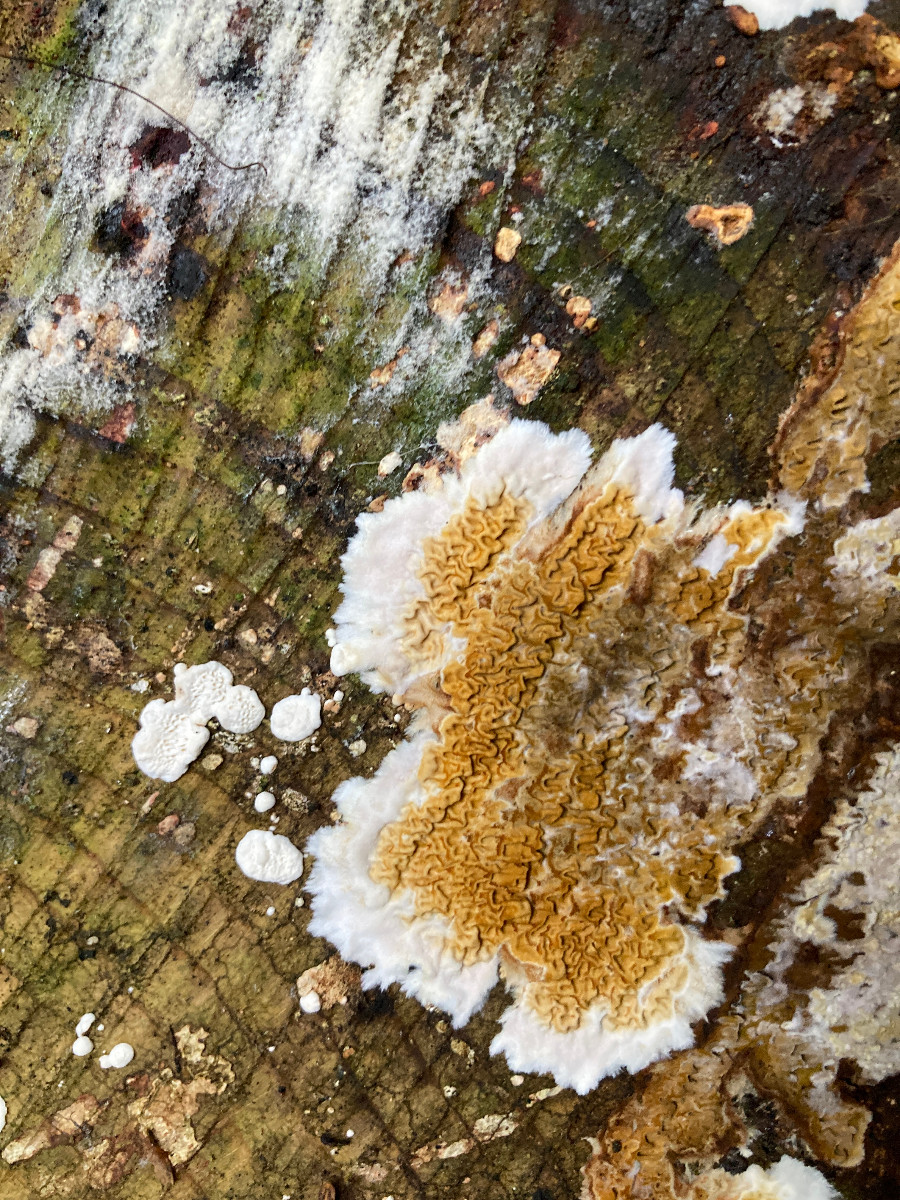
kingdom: Fungi
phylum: Basidiomycota
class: Agaricomycetes
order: Boletales
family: Serpulaceae
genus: Serpula
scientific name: Serpula himantioides
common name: tyndkødet hussvamp
